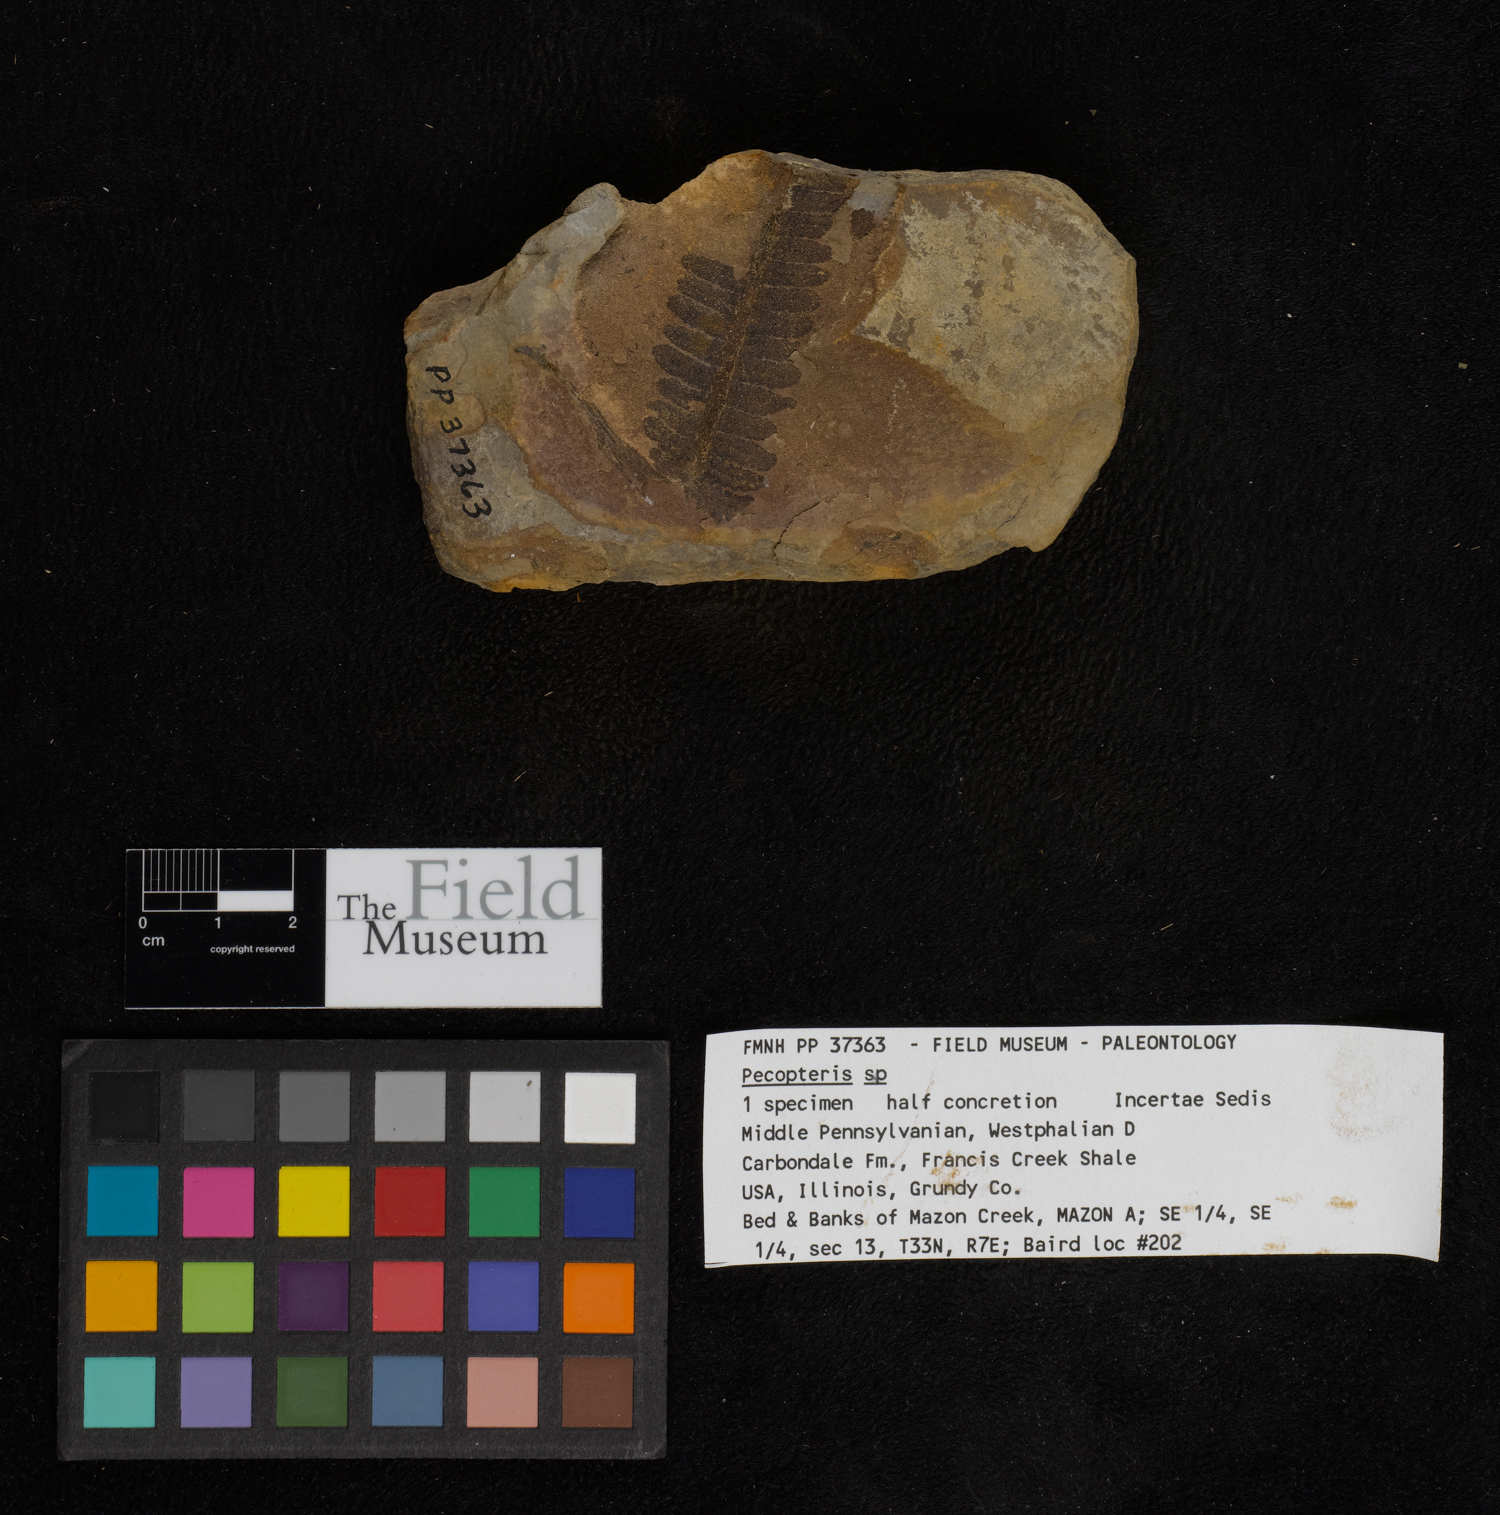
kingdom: Plantae
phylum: Tracheophyta
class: Polypodiopsida
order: Marattiales
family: Asterothecaceae
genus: Pecopteris
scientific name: Pecopteris
